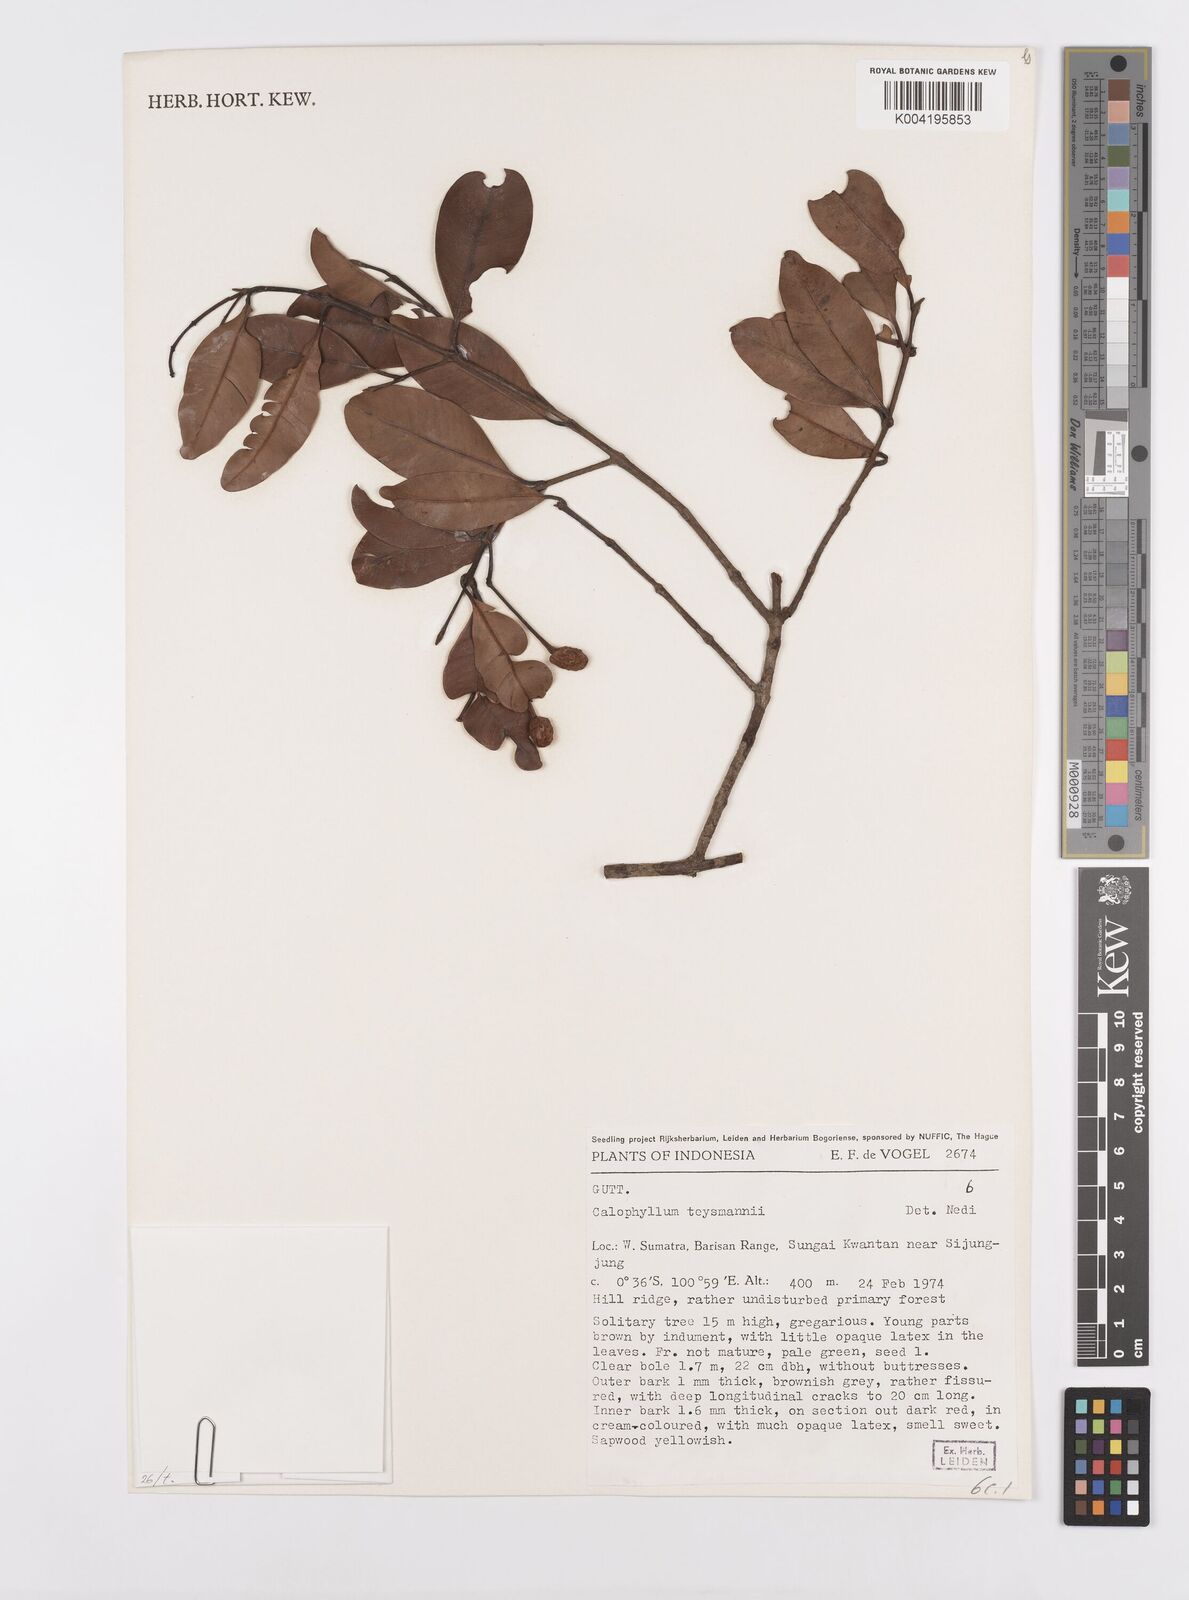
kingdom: Plantae
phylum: Tracheophyta
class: Magnoliopsida
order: Malpighiales
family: Calophyllaceae
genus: Calophyllum
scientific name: Calophyllum teysmannii
